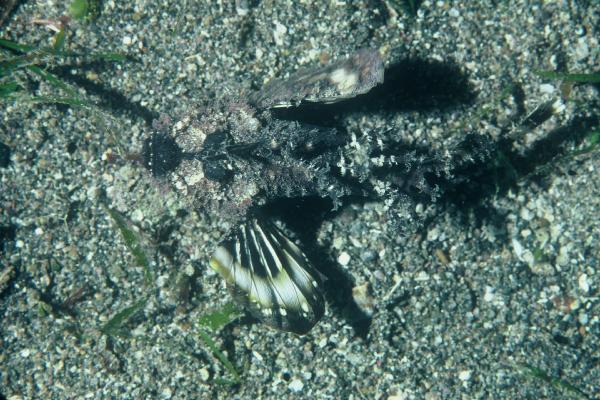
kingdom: Animalia
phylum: Chordata
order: Scorpaeniformes
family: Synanceiidae
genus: Inimicus
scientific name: Inimicus
